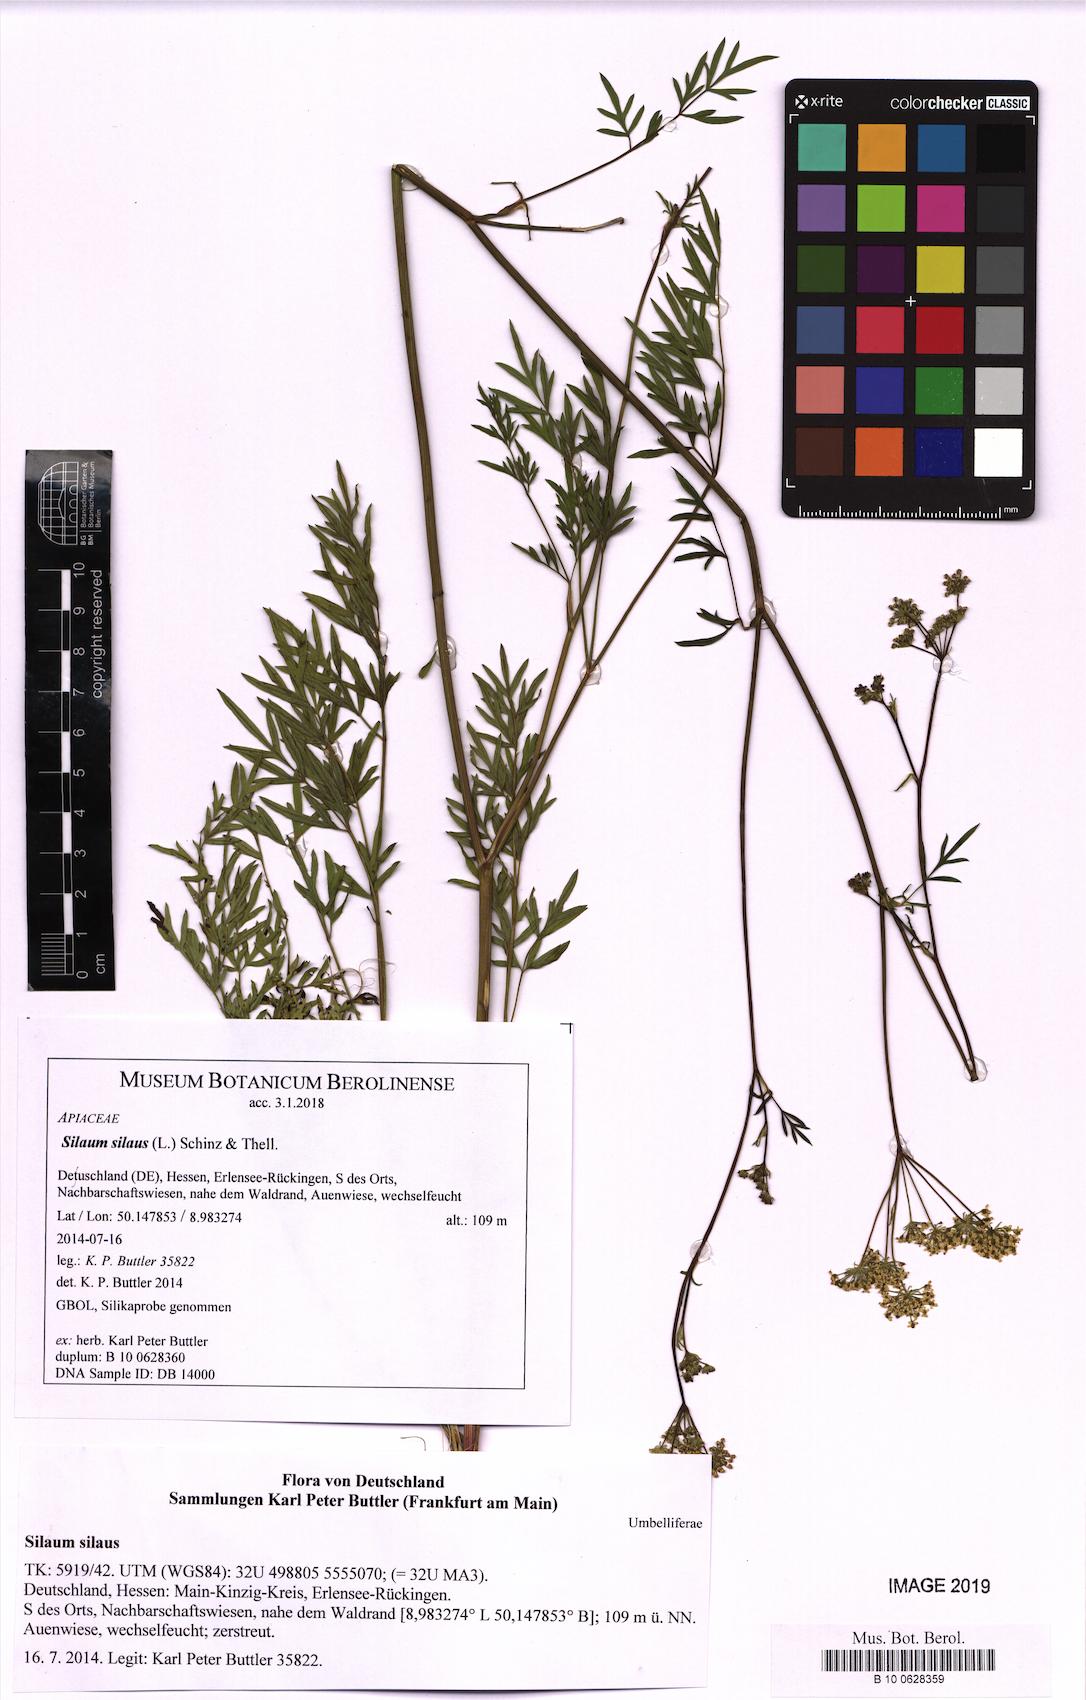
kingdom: Plantae
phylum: Tracheophyta
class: Magnoliopsida
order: Apiales
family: Apiaceae
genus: Silaum
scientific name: Silaum silaus
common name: Pepper-saxifrage
